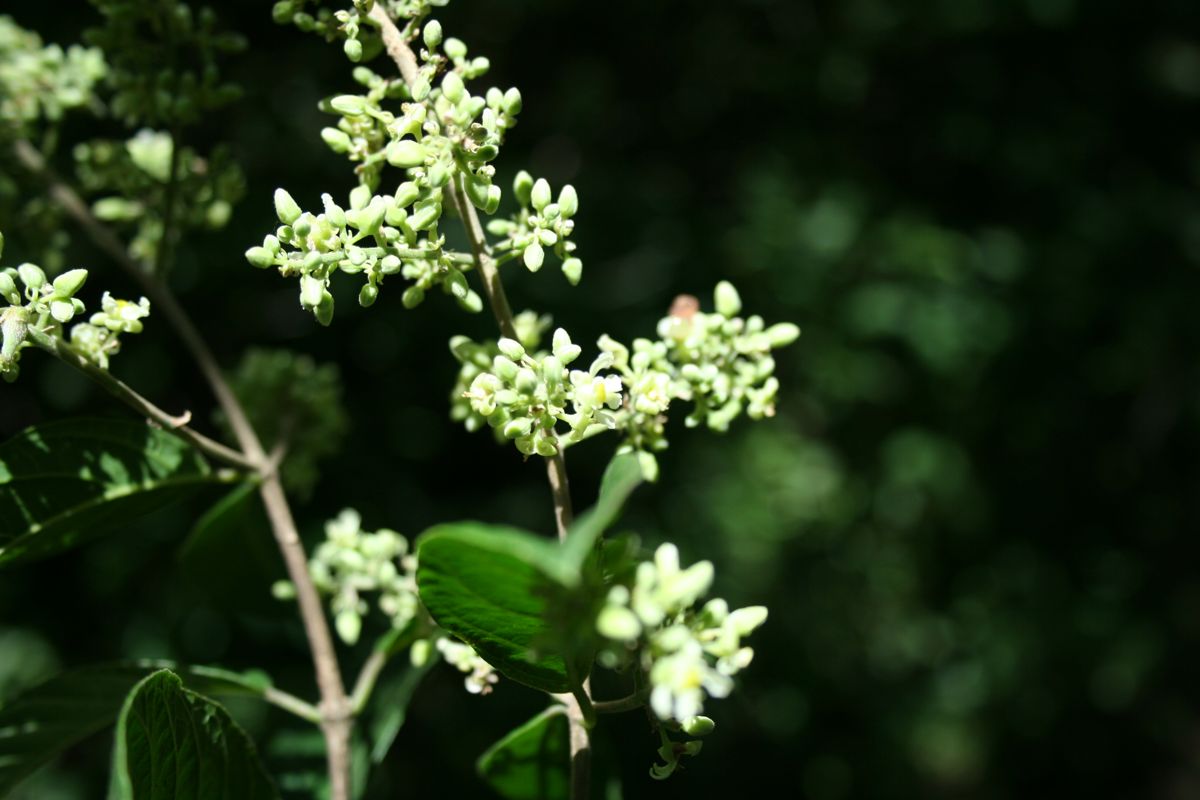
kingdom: Plantae
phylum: Tracheophyta
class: Magnoliopsida
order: Malpighiales
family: Trigoniaceae
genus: Trigonia
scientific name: Trigonia rugosa
